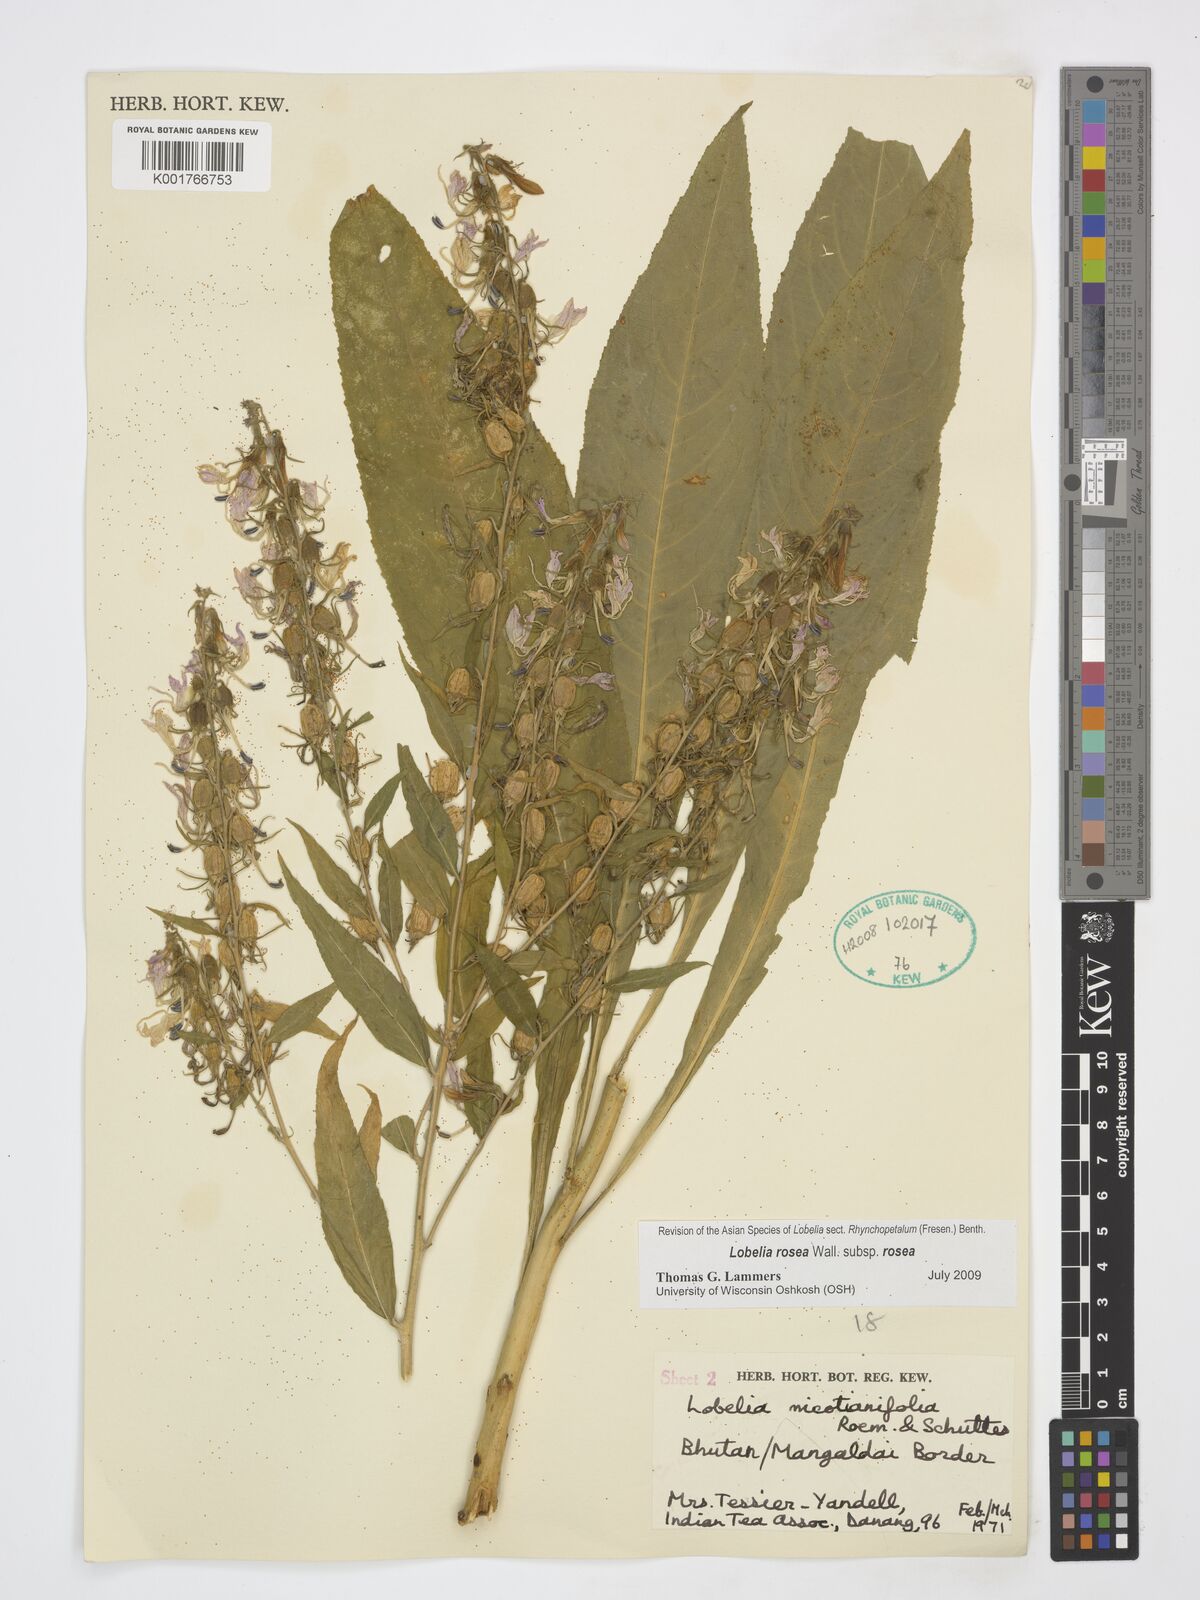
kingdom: Plantae
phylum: Tracheophyta
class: Magnoliopsida
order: Asterales
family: Campanulaceae
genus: Lobelia
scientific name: Lobelia rosea
